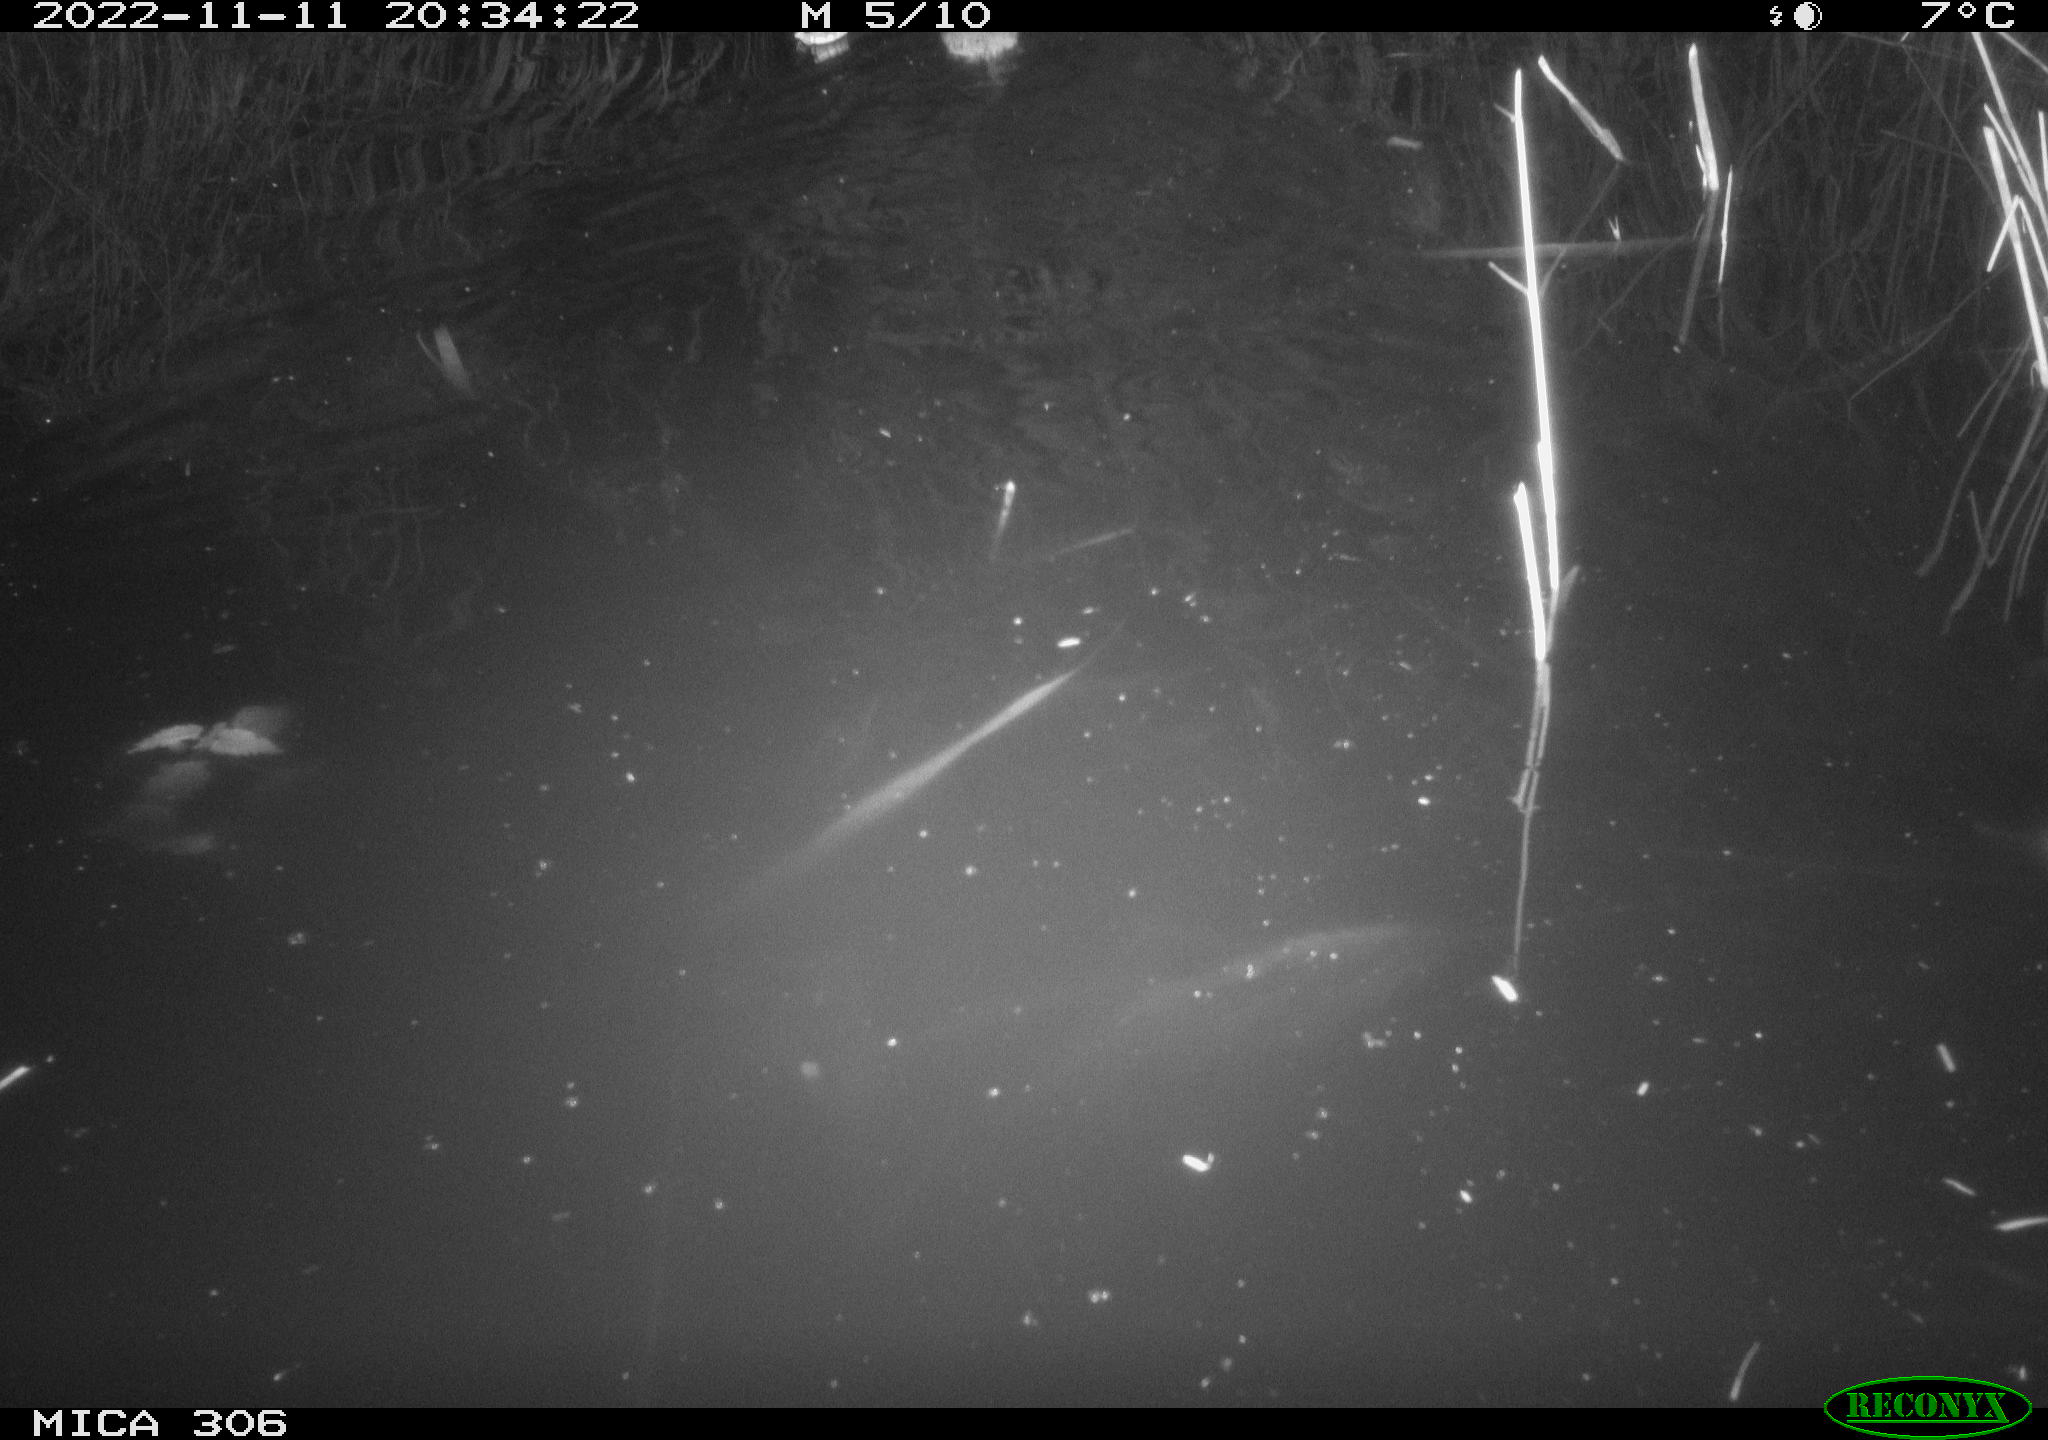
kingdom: Animalia
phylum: Chordata
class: Mammalia
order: Rodentia
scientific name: Rodentia
